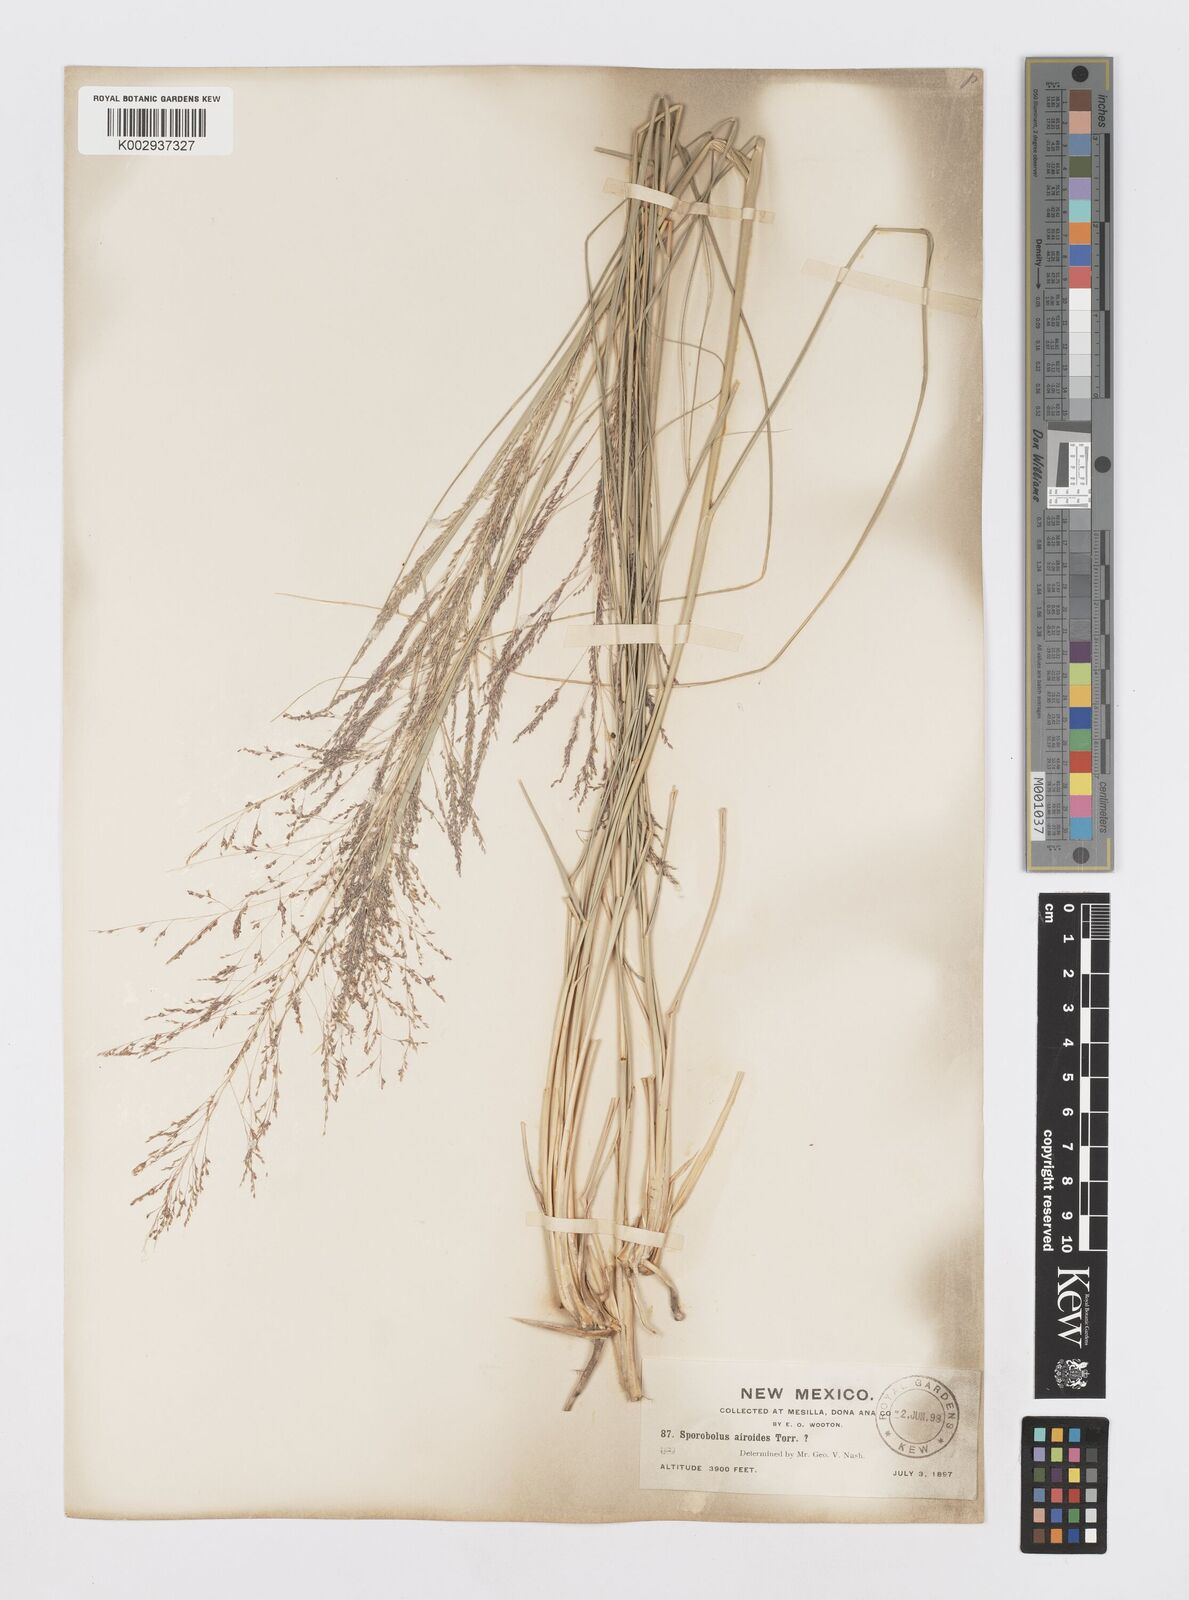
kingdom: Plantae
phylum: Tracheophyta
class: Liliopsida
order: Poales
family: Poaceae
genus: Sporobolus
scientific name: Sporobolus airoides
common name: Alkali sacaton
